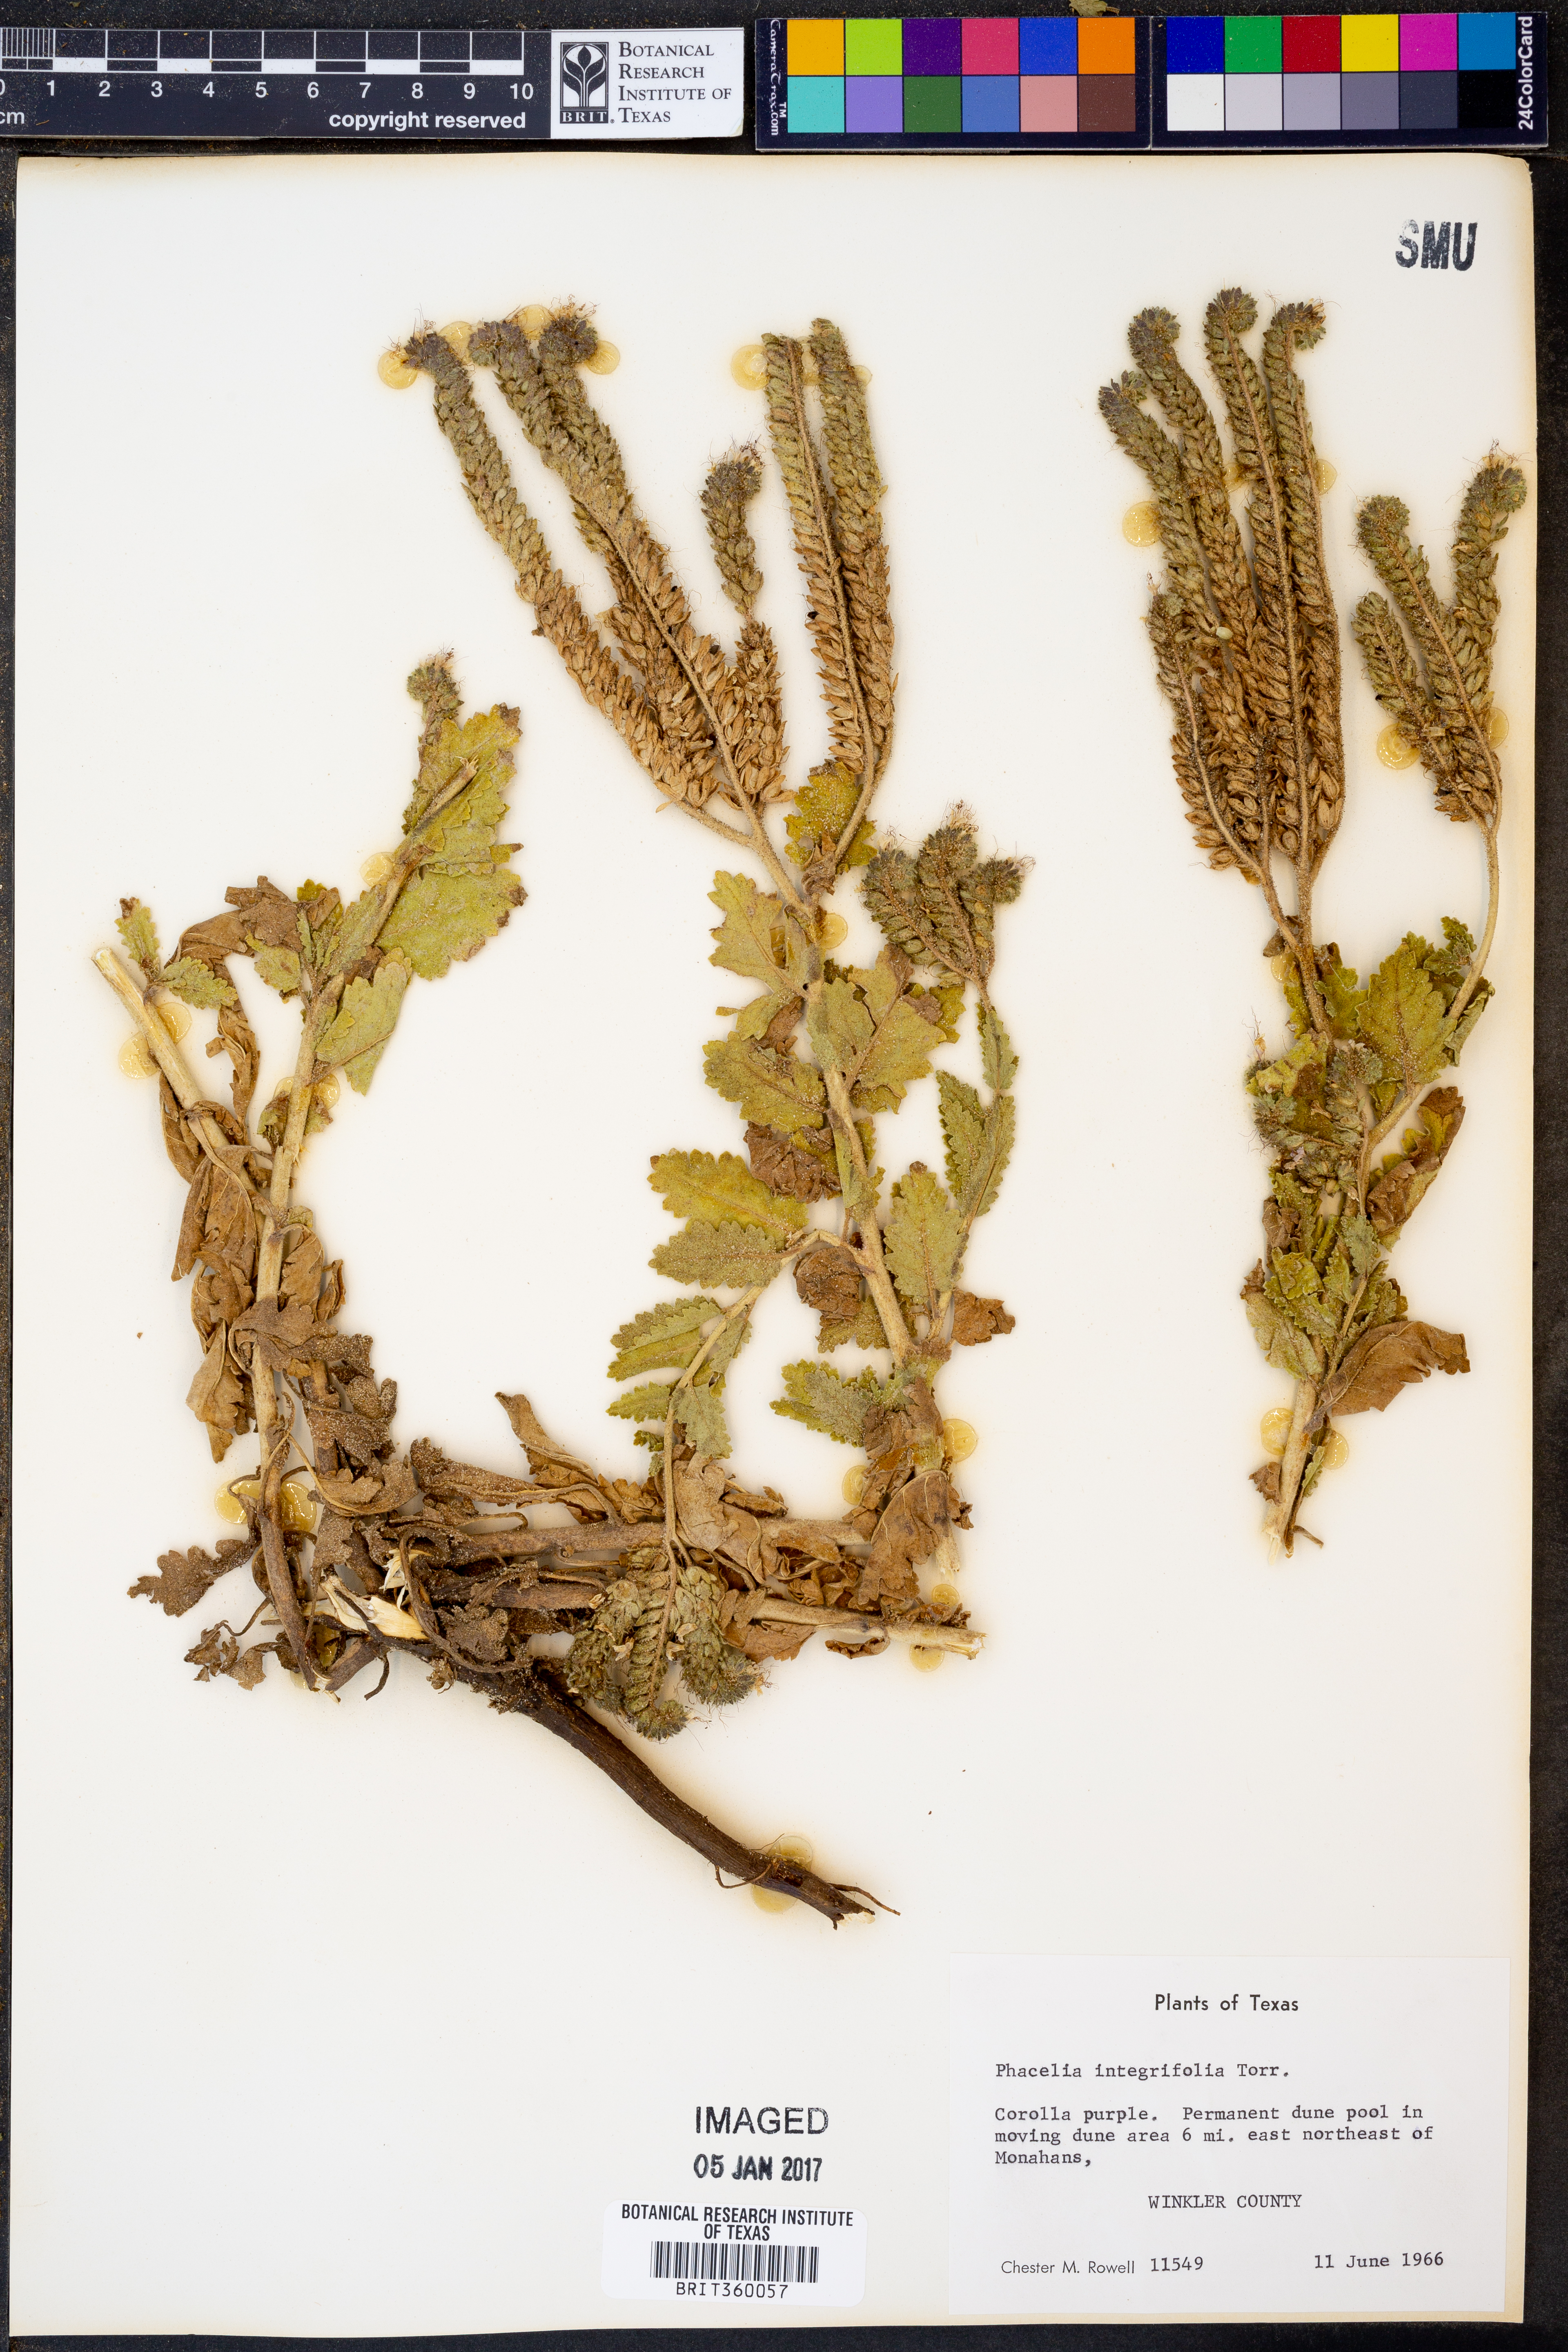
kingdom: Plantae
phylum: Tracheophyta
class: Magnoliopsida
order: Boraginales
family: Hydrophyllaceae
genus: Phacelia
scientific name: Phacelia integrifolia
